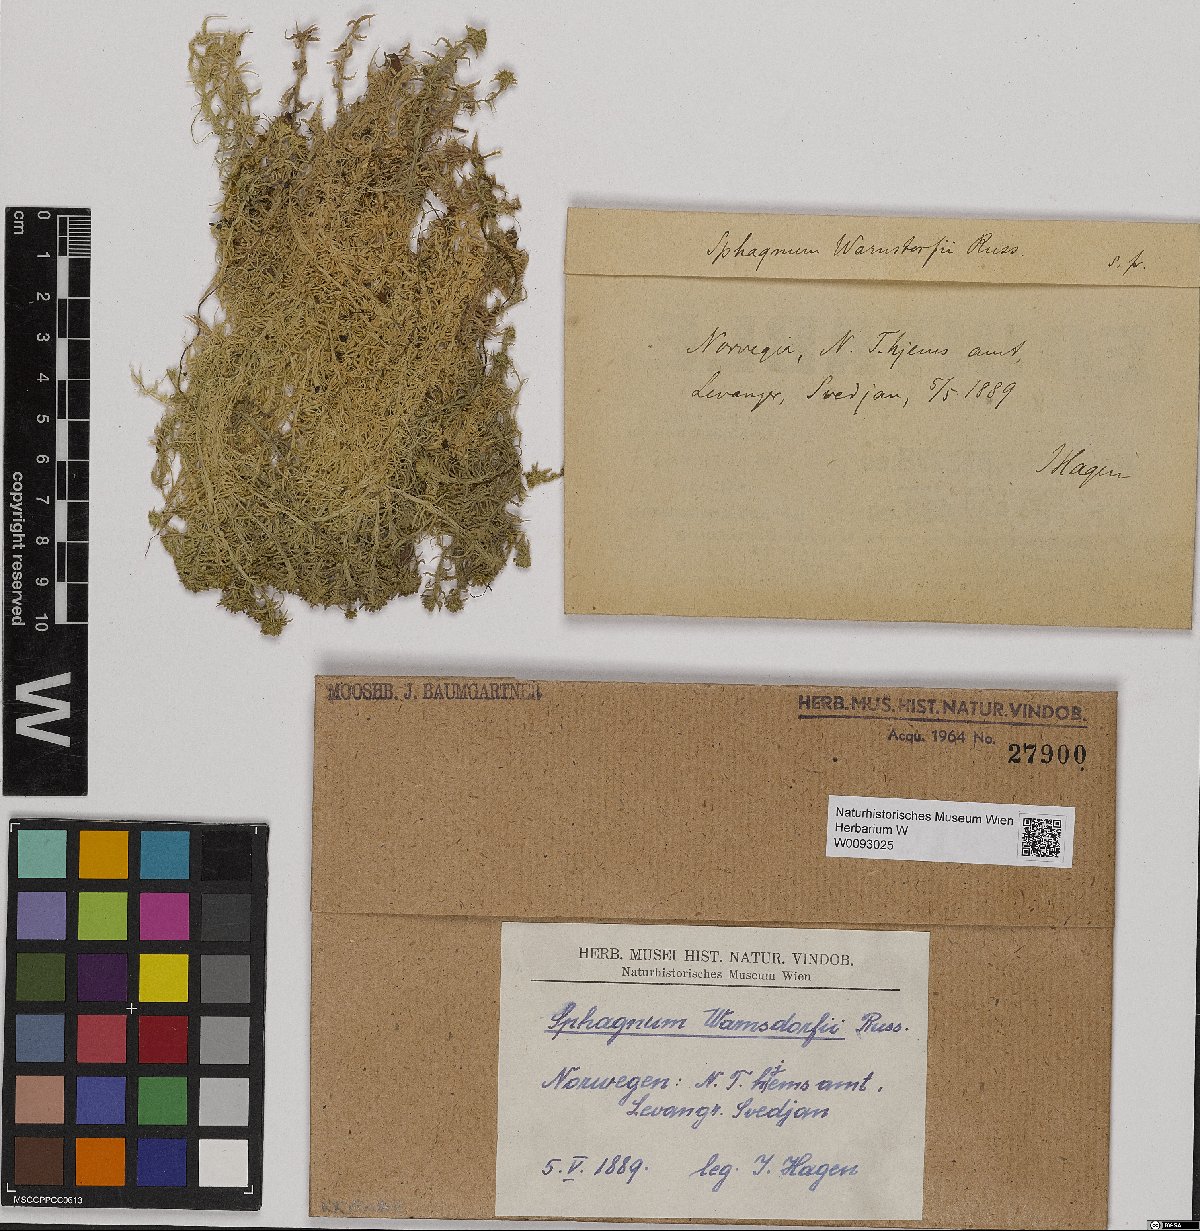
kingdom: Plantae
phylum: Bryophyta
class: Sphagnopsida
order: Sphagnales
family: Sphagnaceae
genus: Sphagnum
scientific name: Sphagnum warnstorfii
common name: Warnstorf's peat moss
